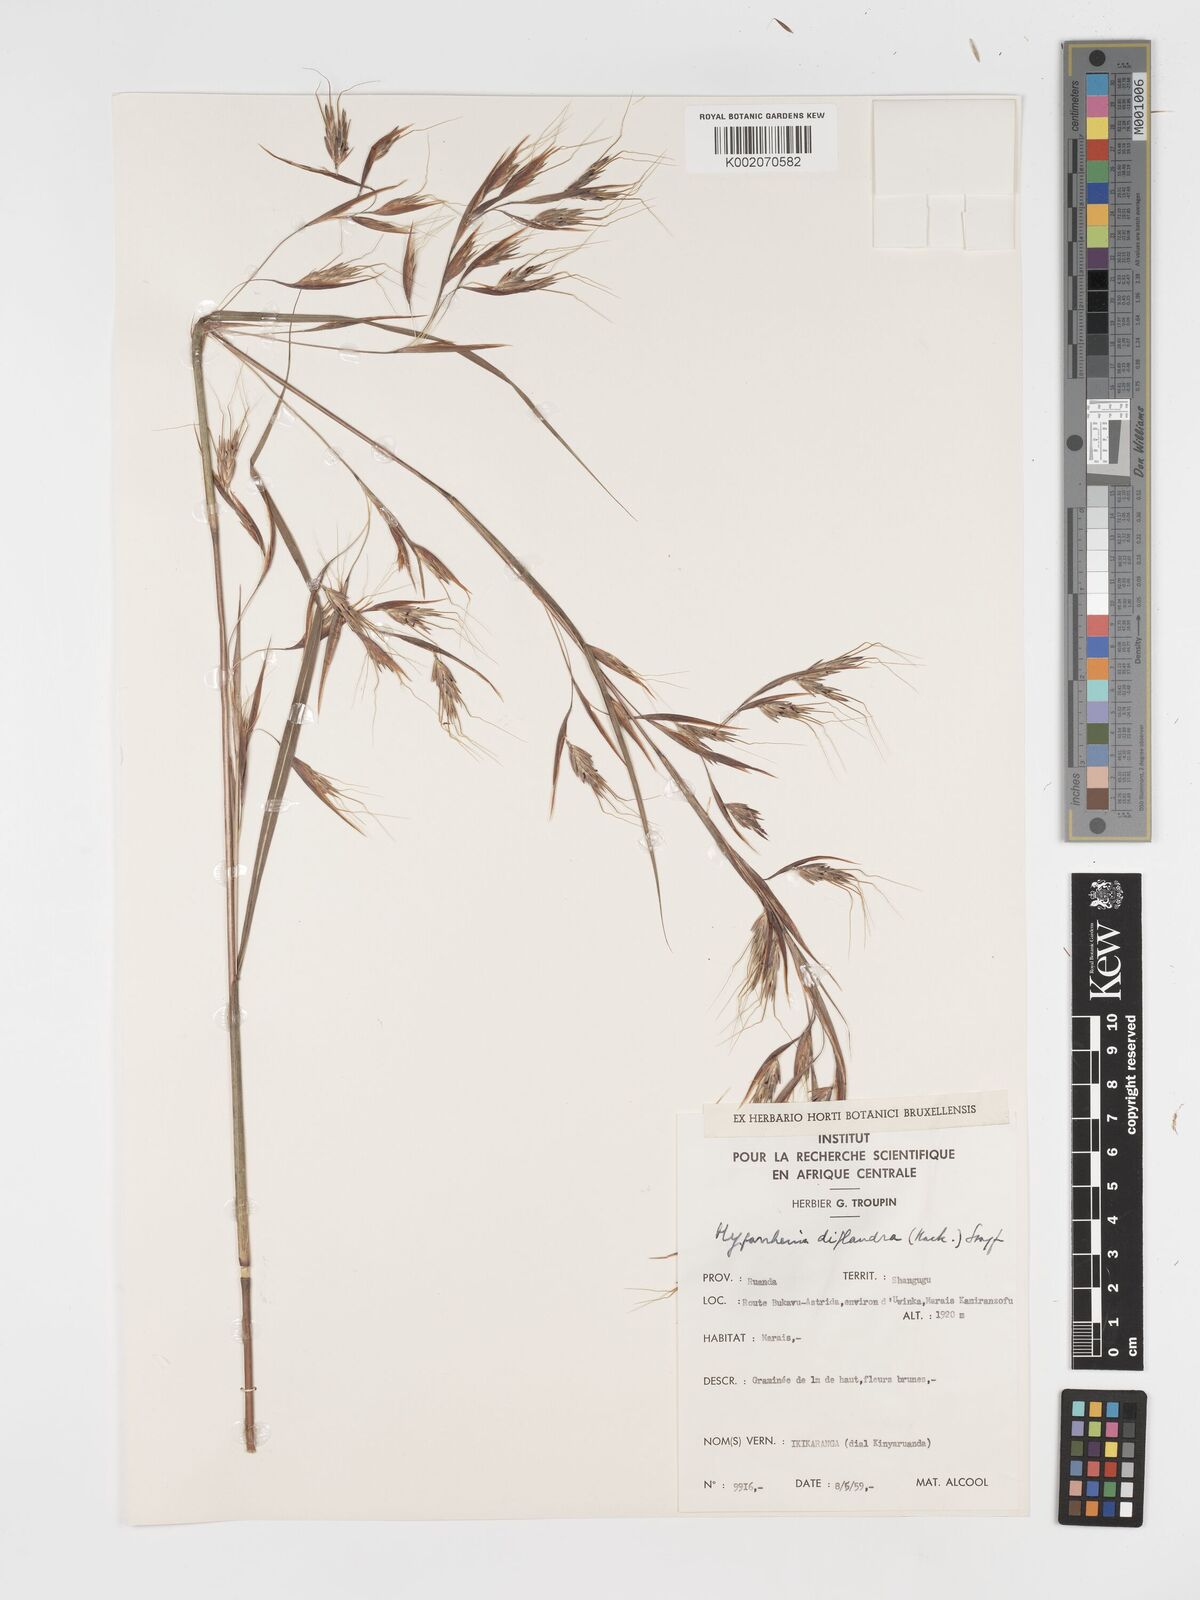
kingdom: Plantae
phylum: Tracheophyta
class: Liliopsida
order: Poales
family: Poaceae
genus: Hyparrhenia
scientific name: Hyparrhenia diplandra
